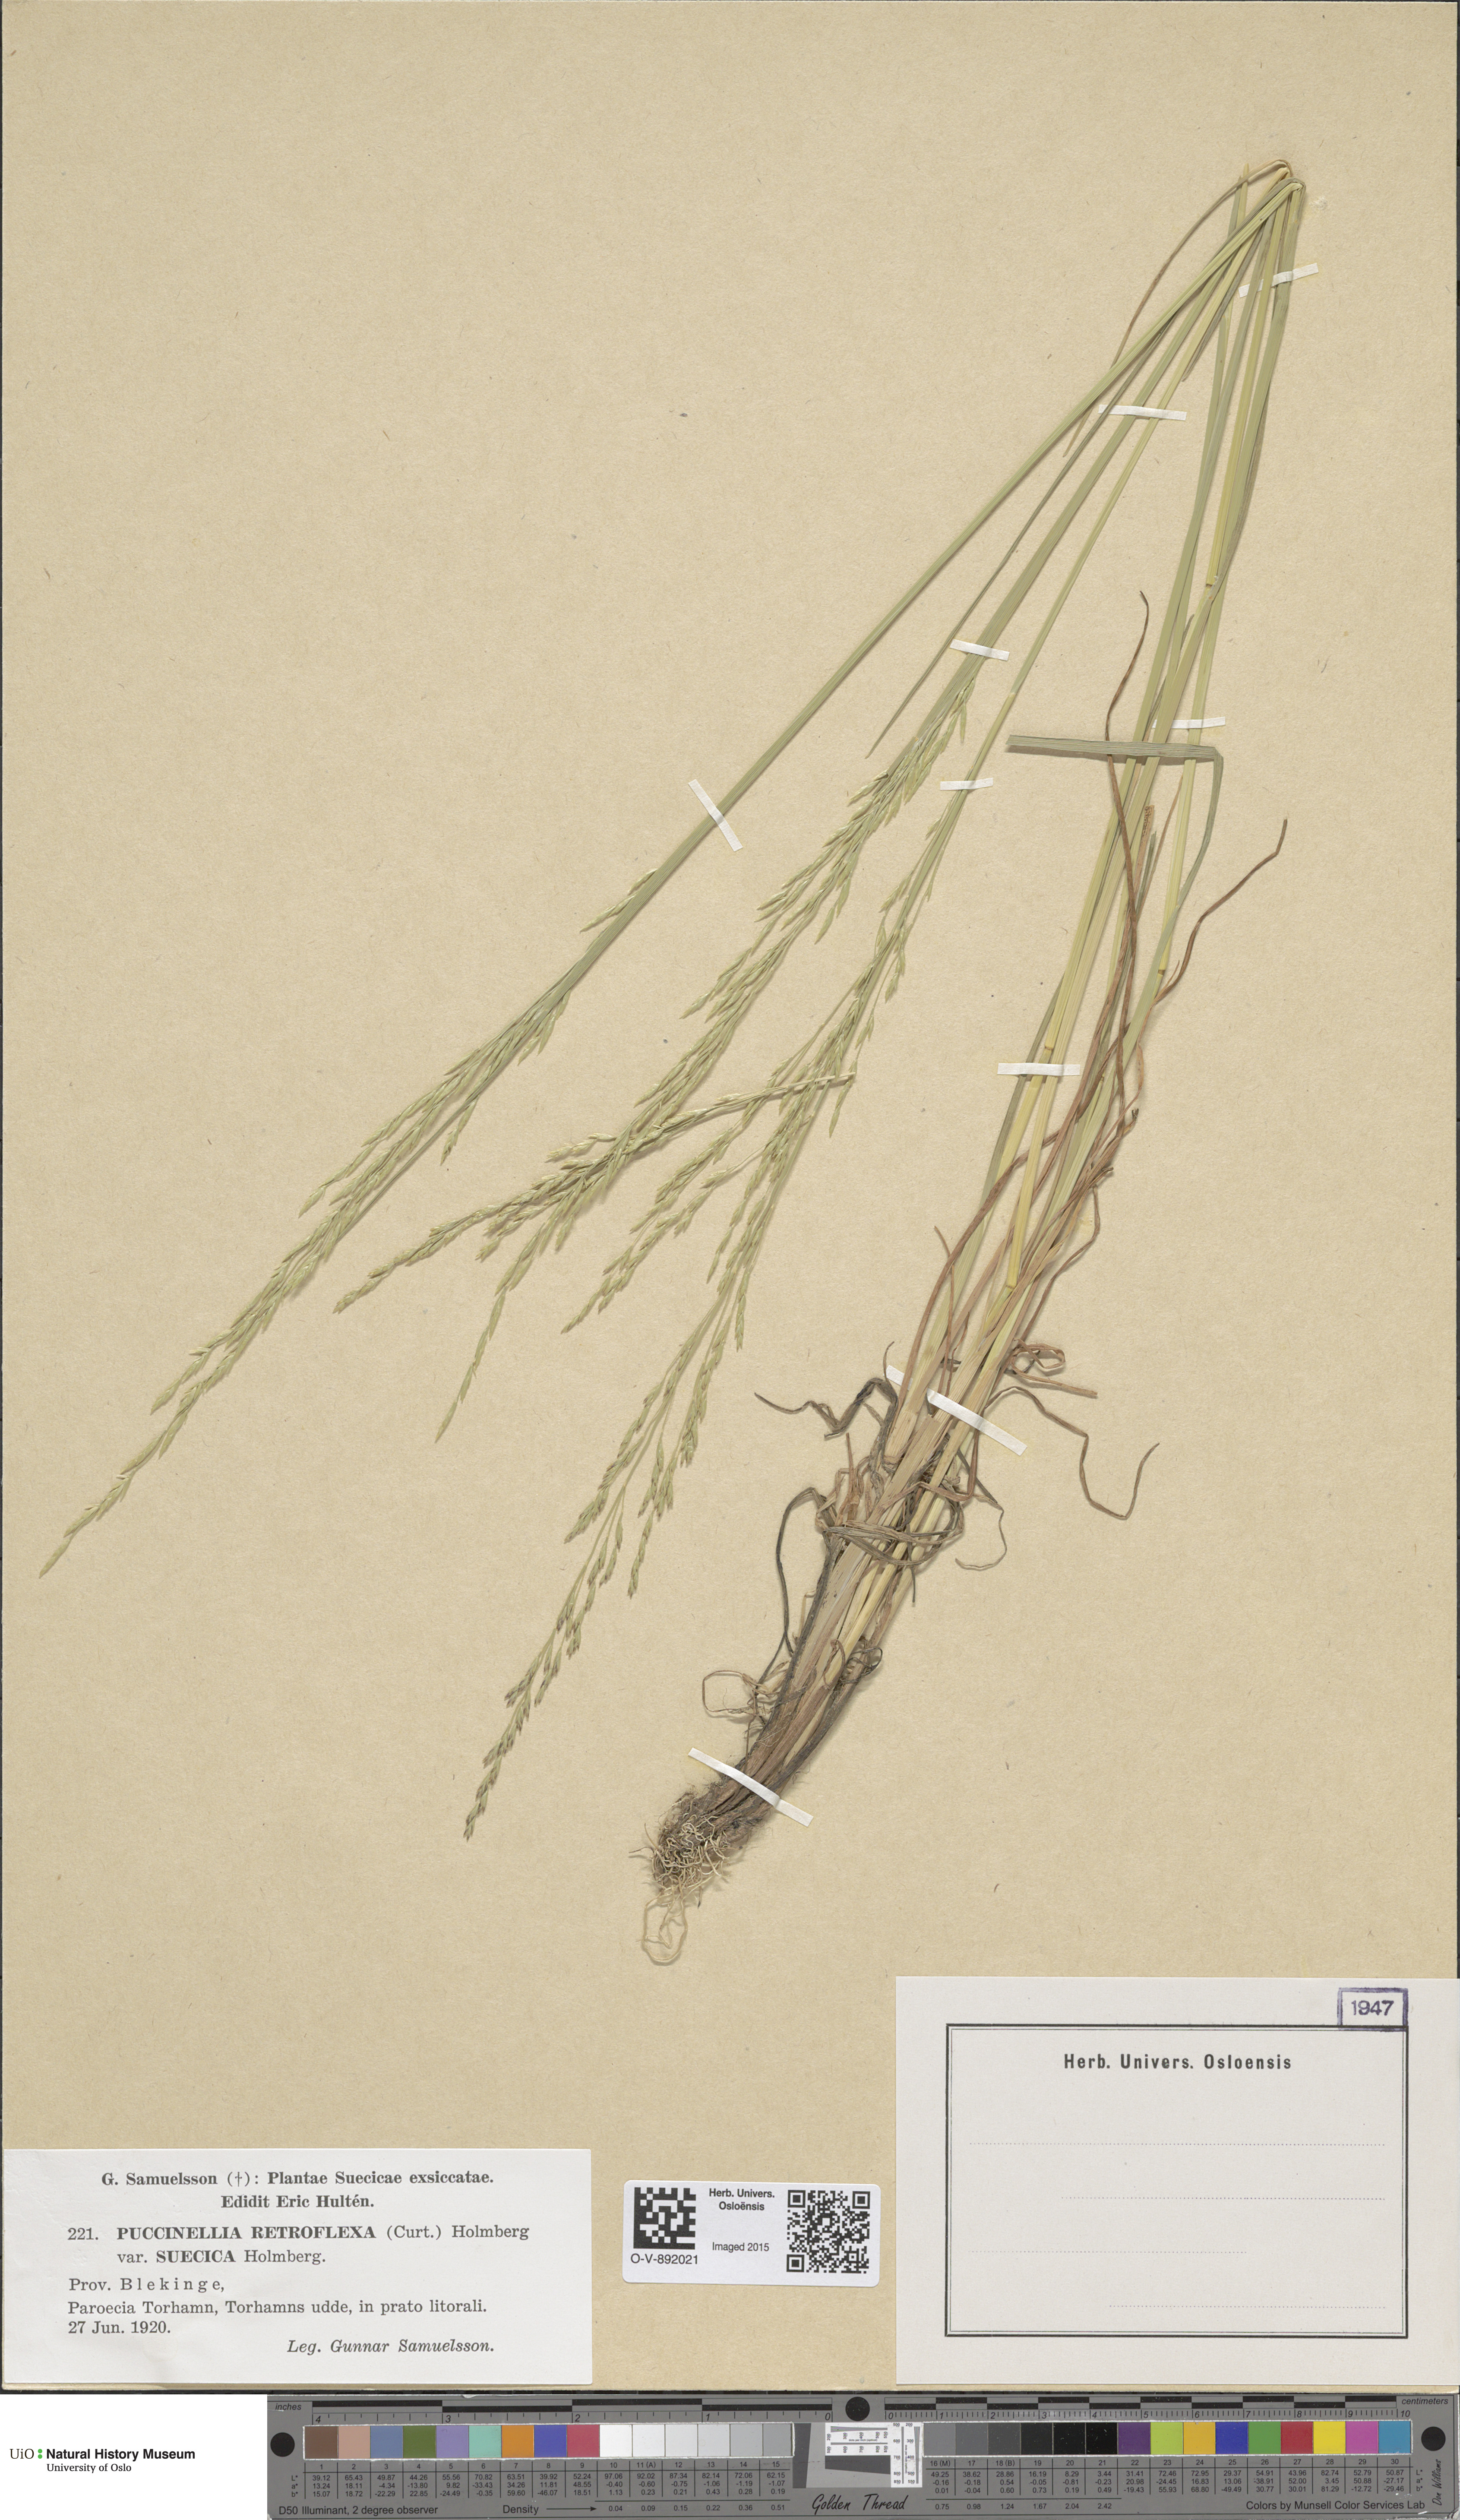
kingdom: Plantae
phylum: Tracheophyta
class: Liliopsida
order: Poales
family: Poaceae
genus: Puccinellia
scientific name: Puccinellia distans
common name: Weeping alkaligrass
